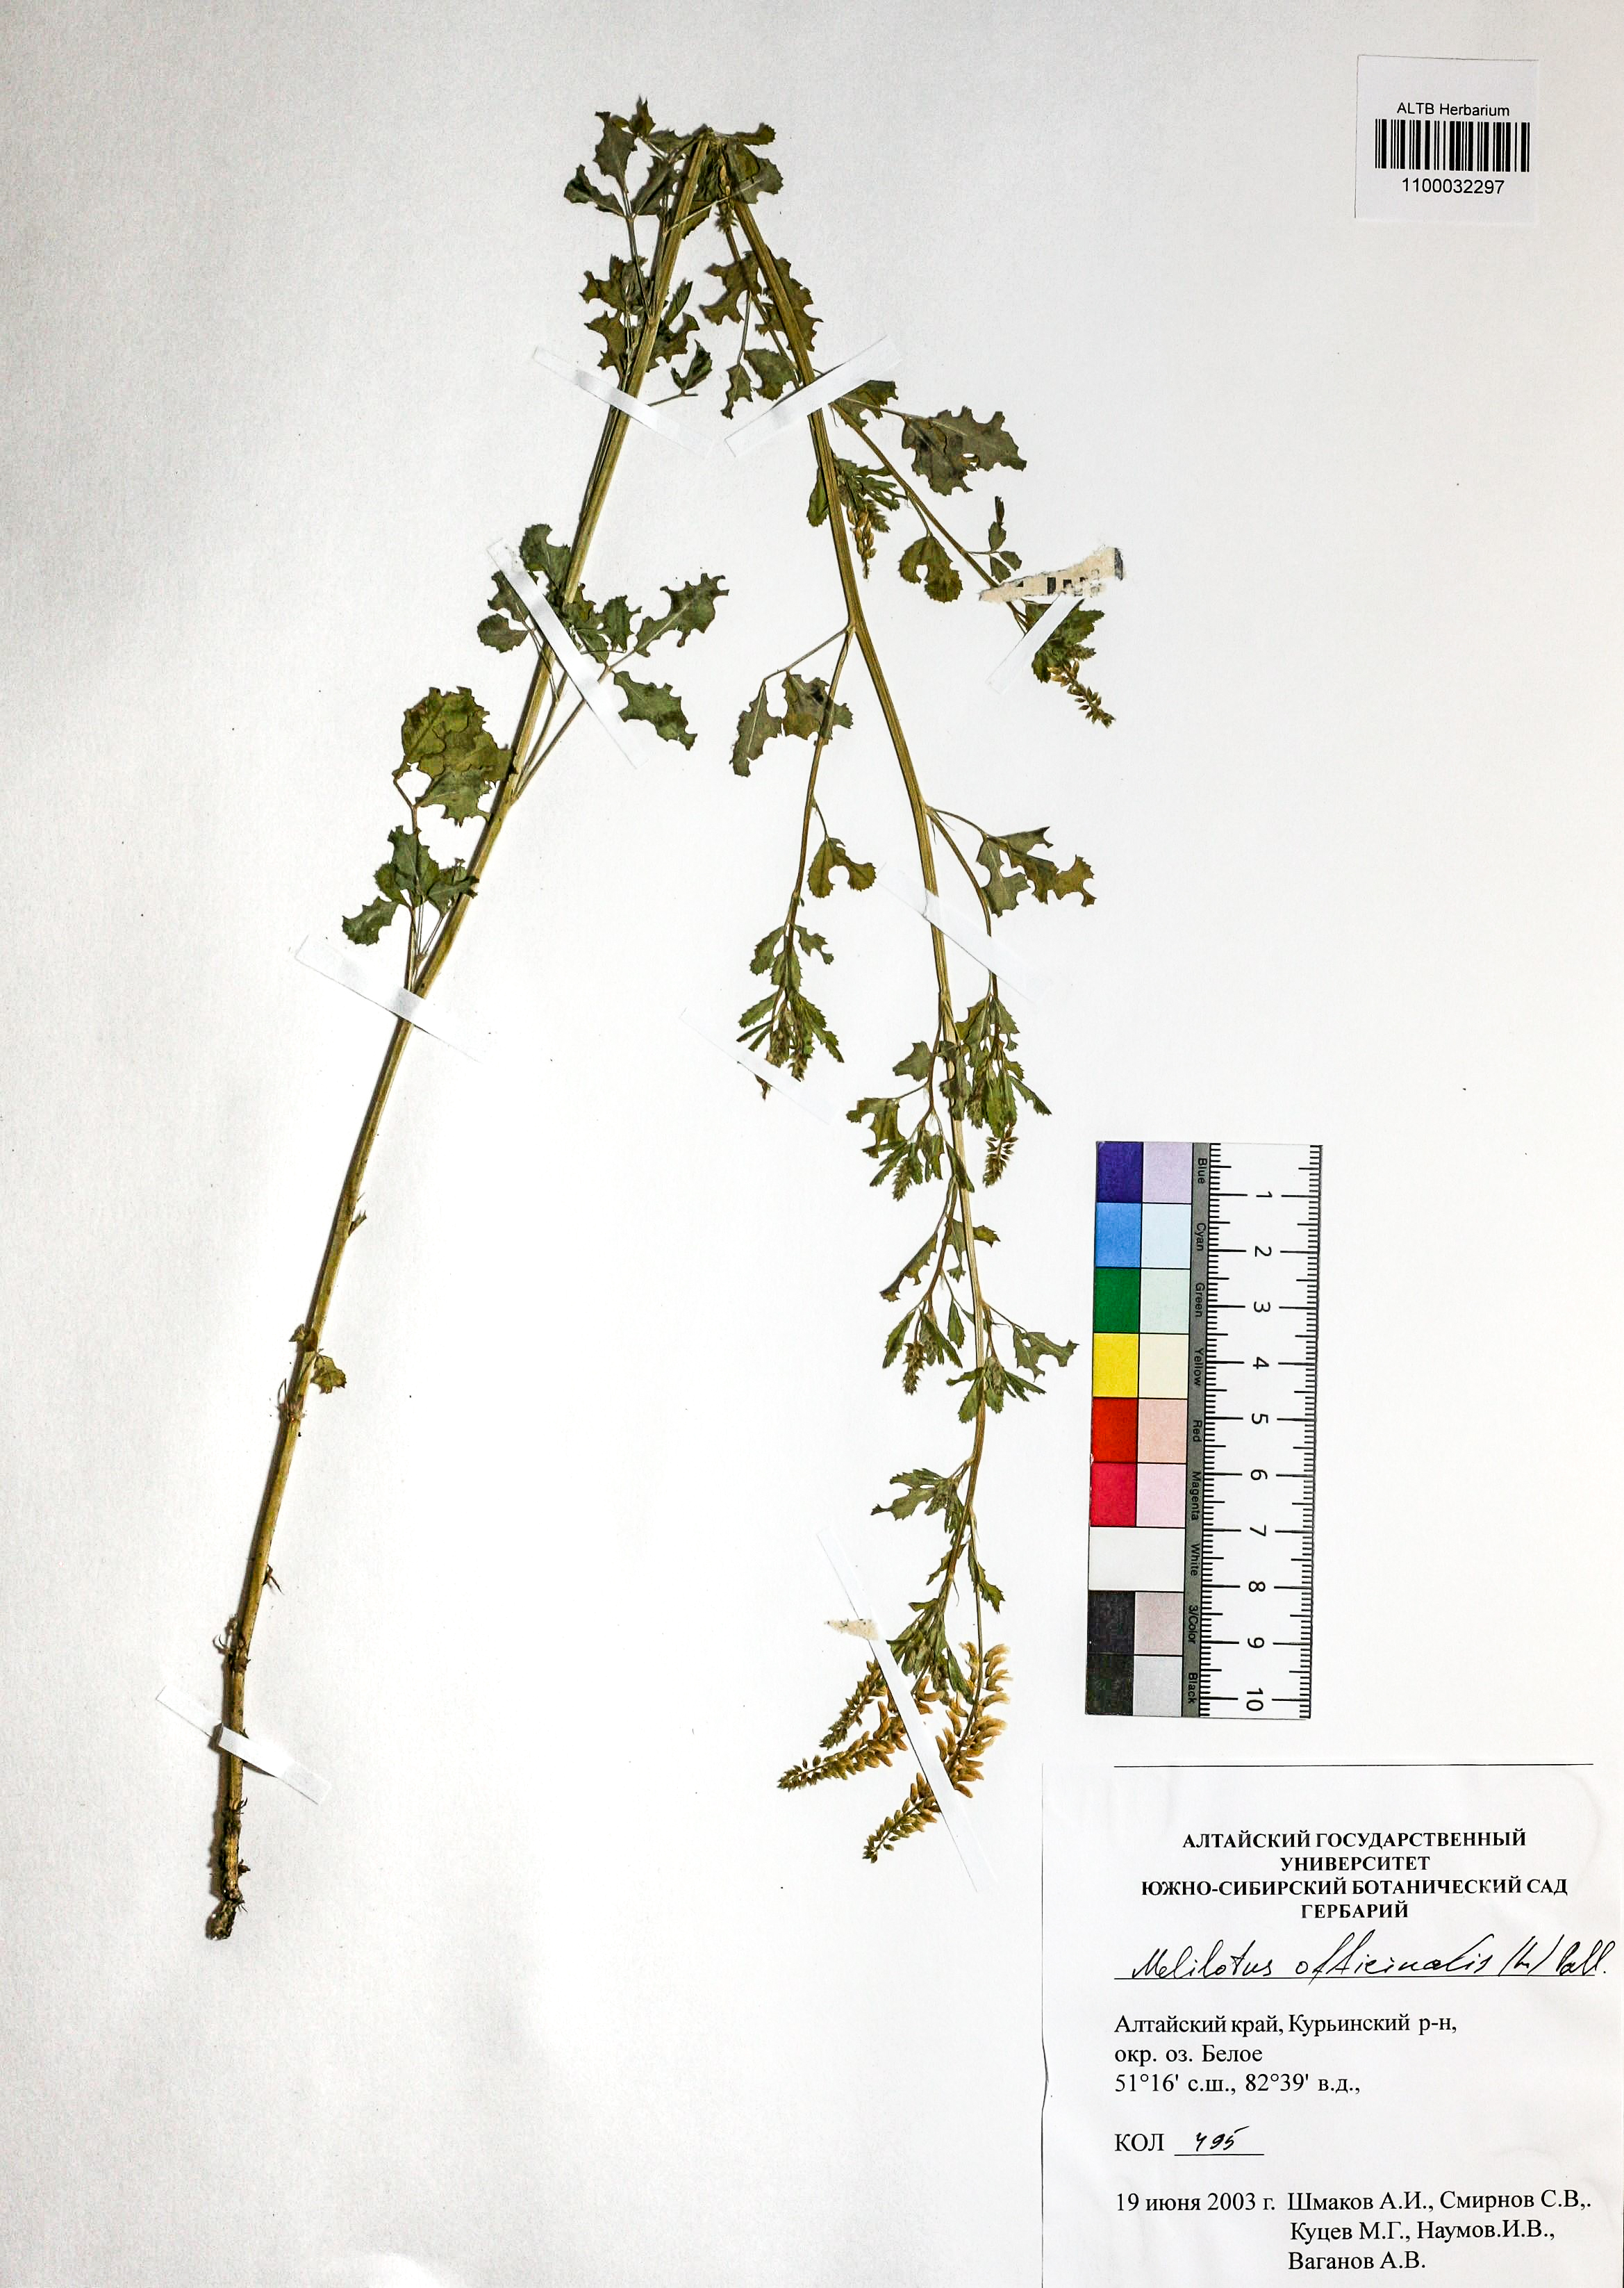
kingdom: Plantae
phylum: Tracheophyta
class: Magnoliopsida
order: Fabales
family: Fabaceae
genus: Melilotus
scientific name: Melilotus officinalis
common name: Sweetclover
